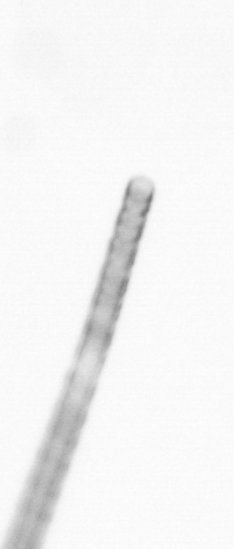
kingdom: Chromista
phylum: Ochrophyta
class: Bacillariophyceae
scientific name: Bacillariophyceae
